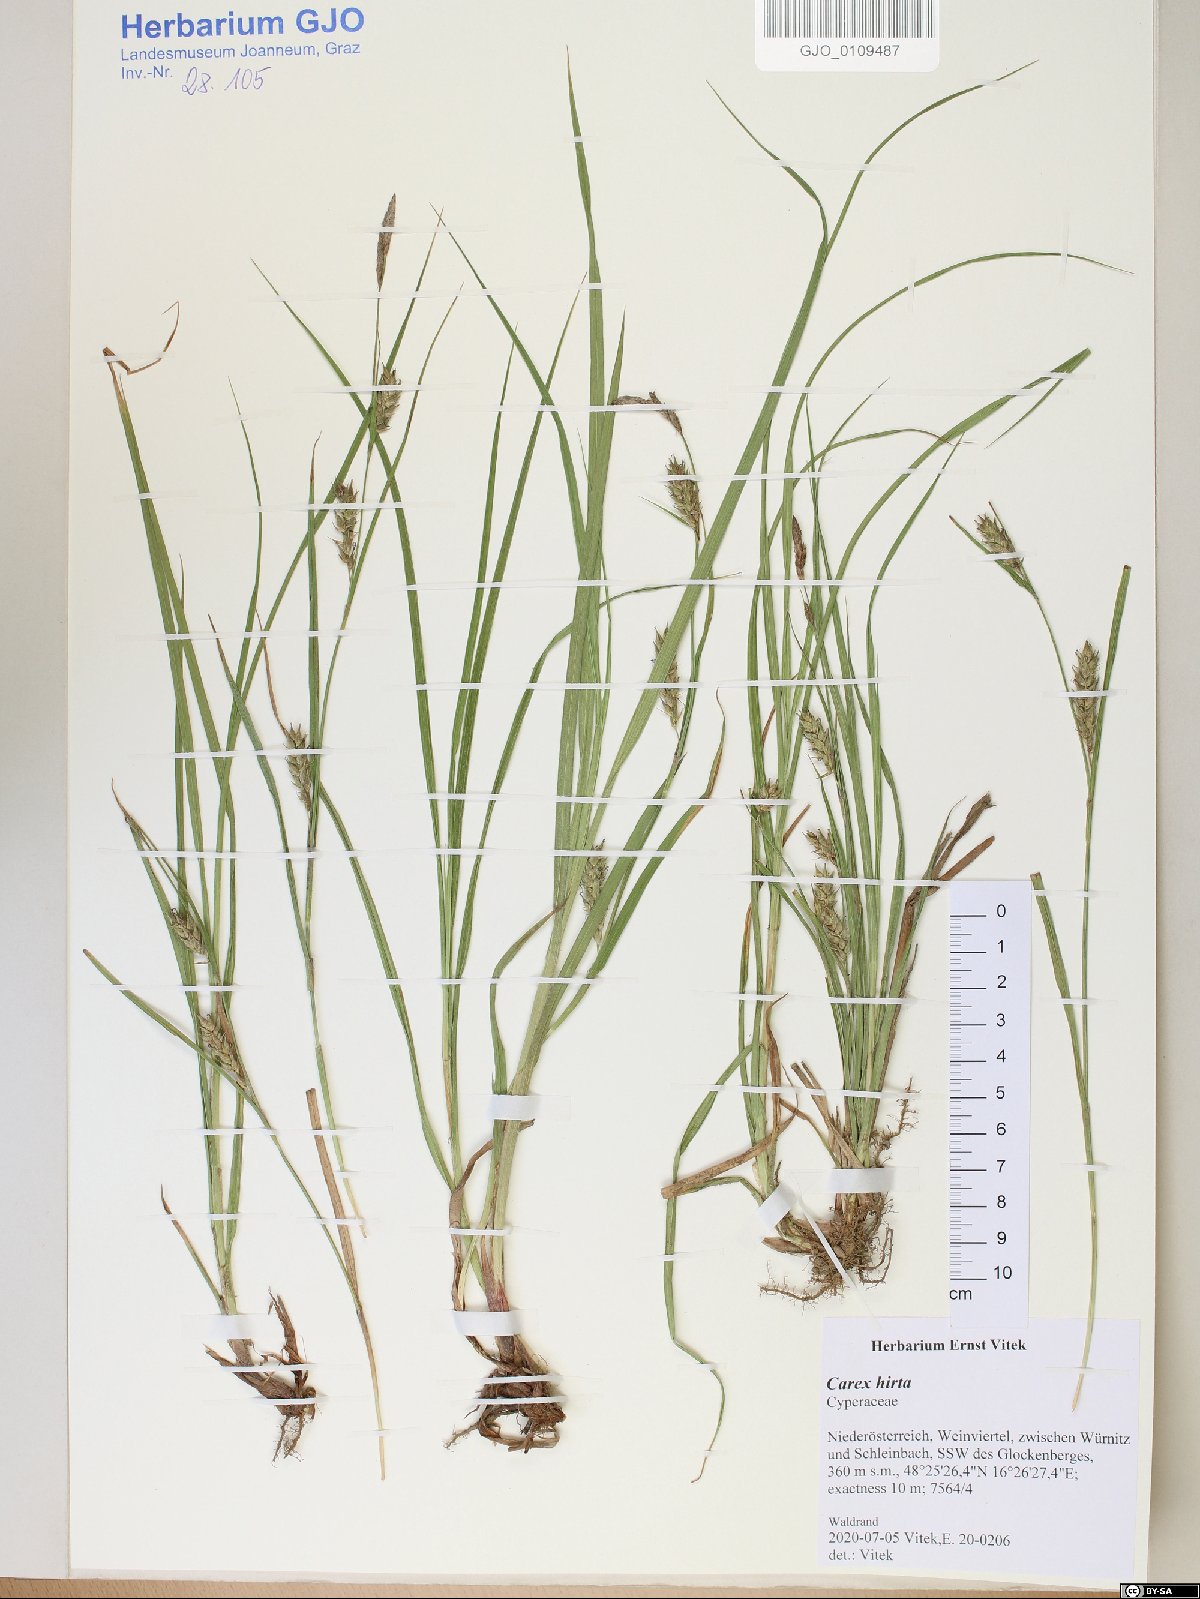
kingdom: Plantae
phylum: Tracheophyta
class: Liliopsida
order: Poales
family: Cyperaceae
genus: Carex
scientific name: Carex hirta
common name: Hairy sedge
